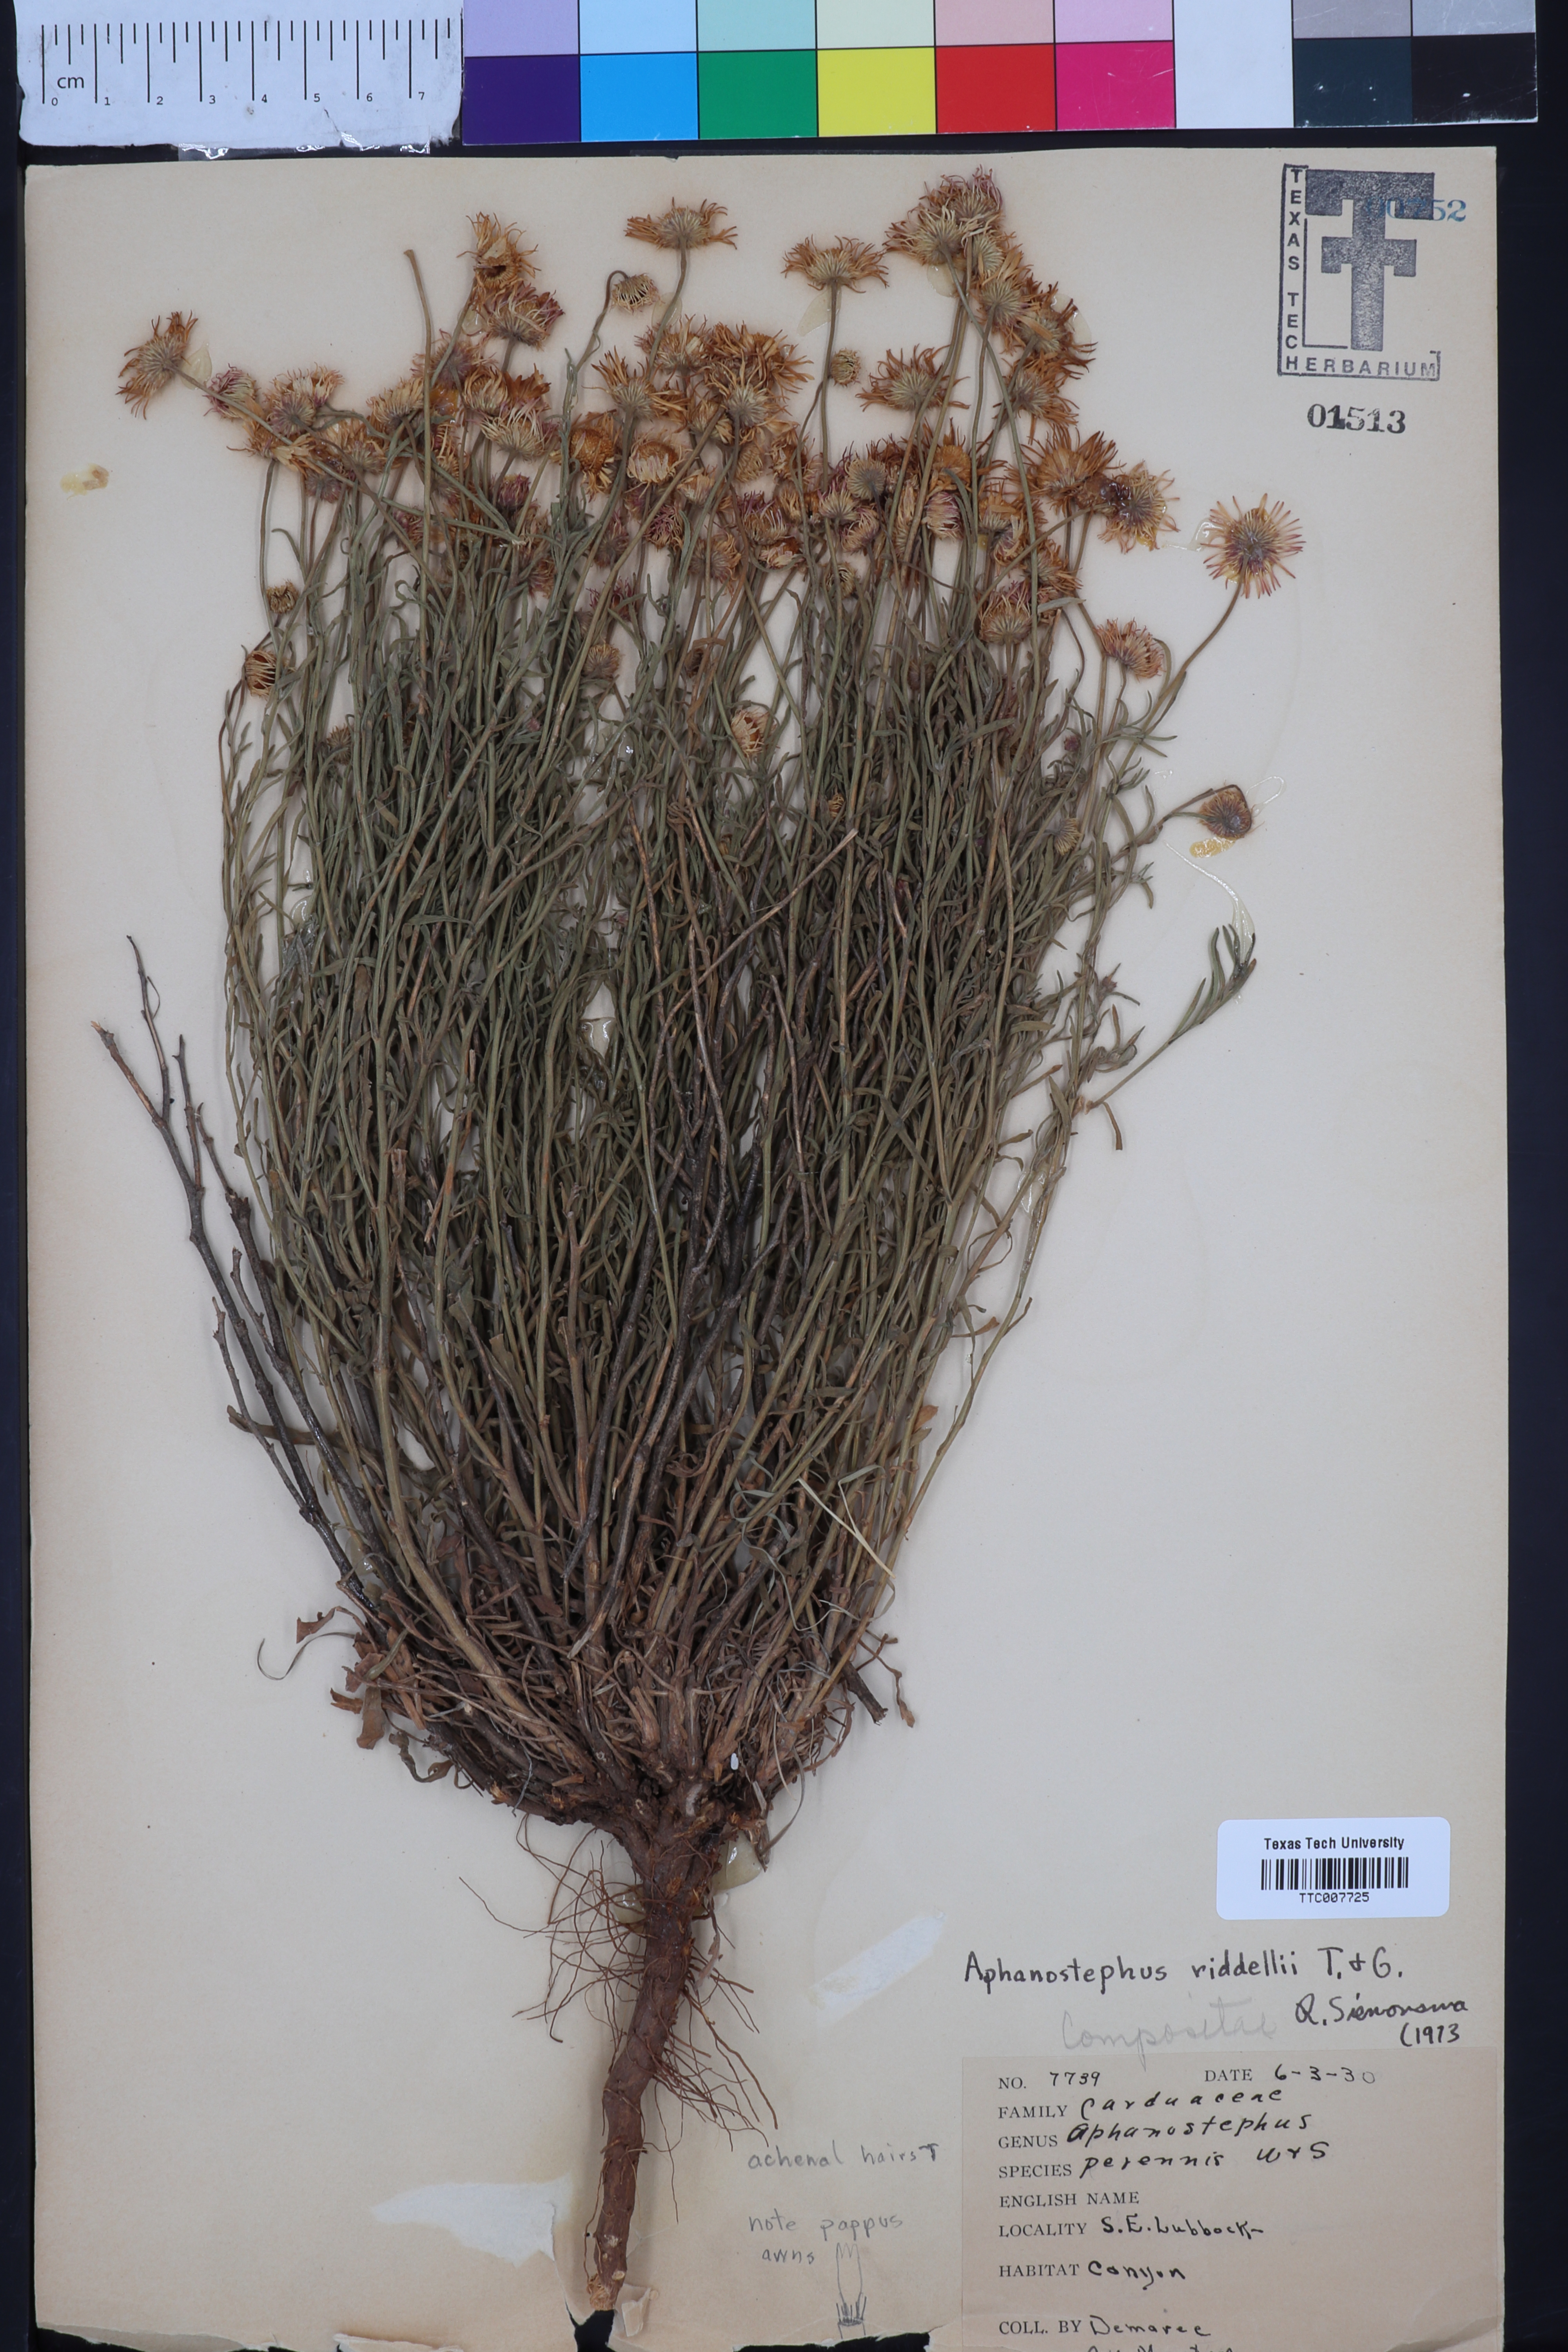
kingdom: Plantae
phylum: Tracheophyta
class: Magnoliopsida
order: Asterales
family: Asteraceae
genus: Aphanostephus
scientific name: Aphanostephus riddellii
